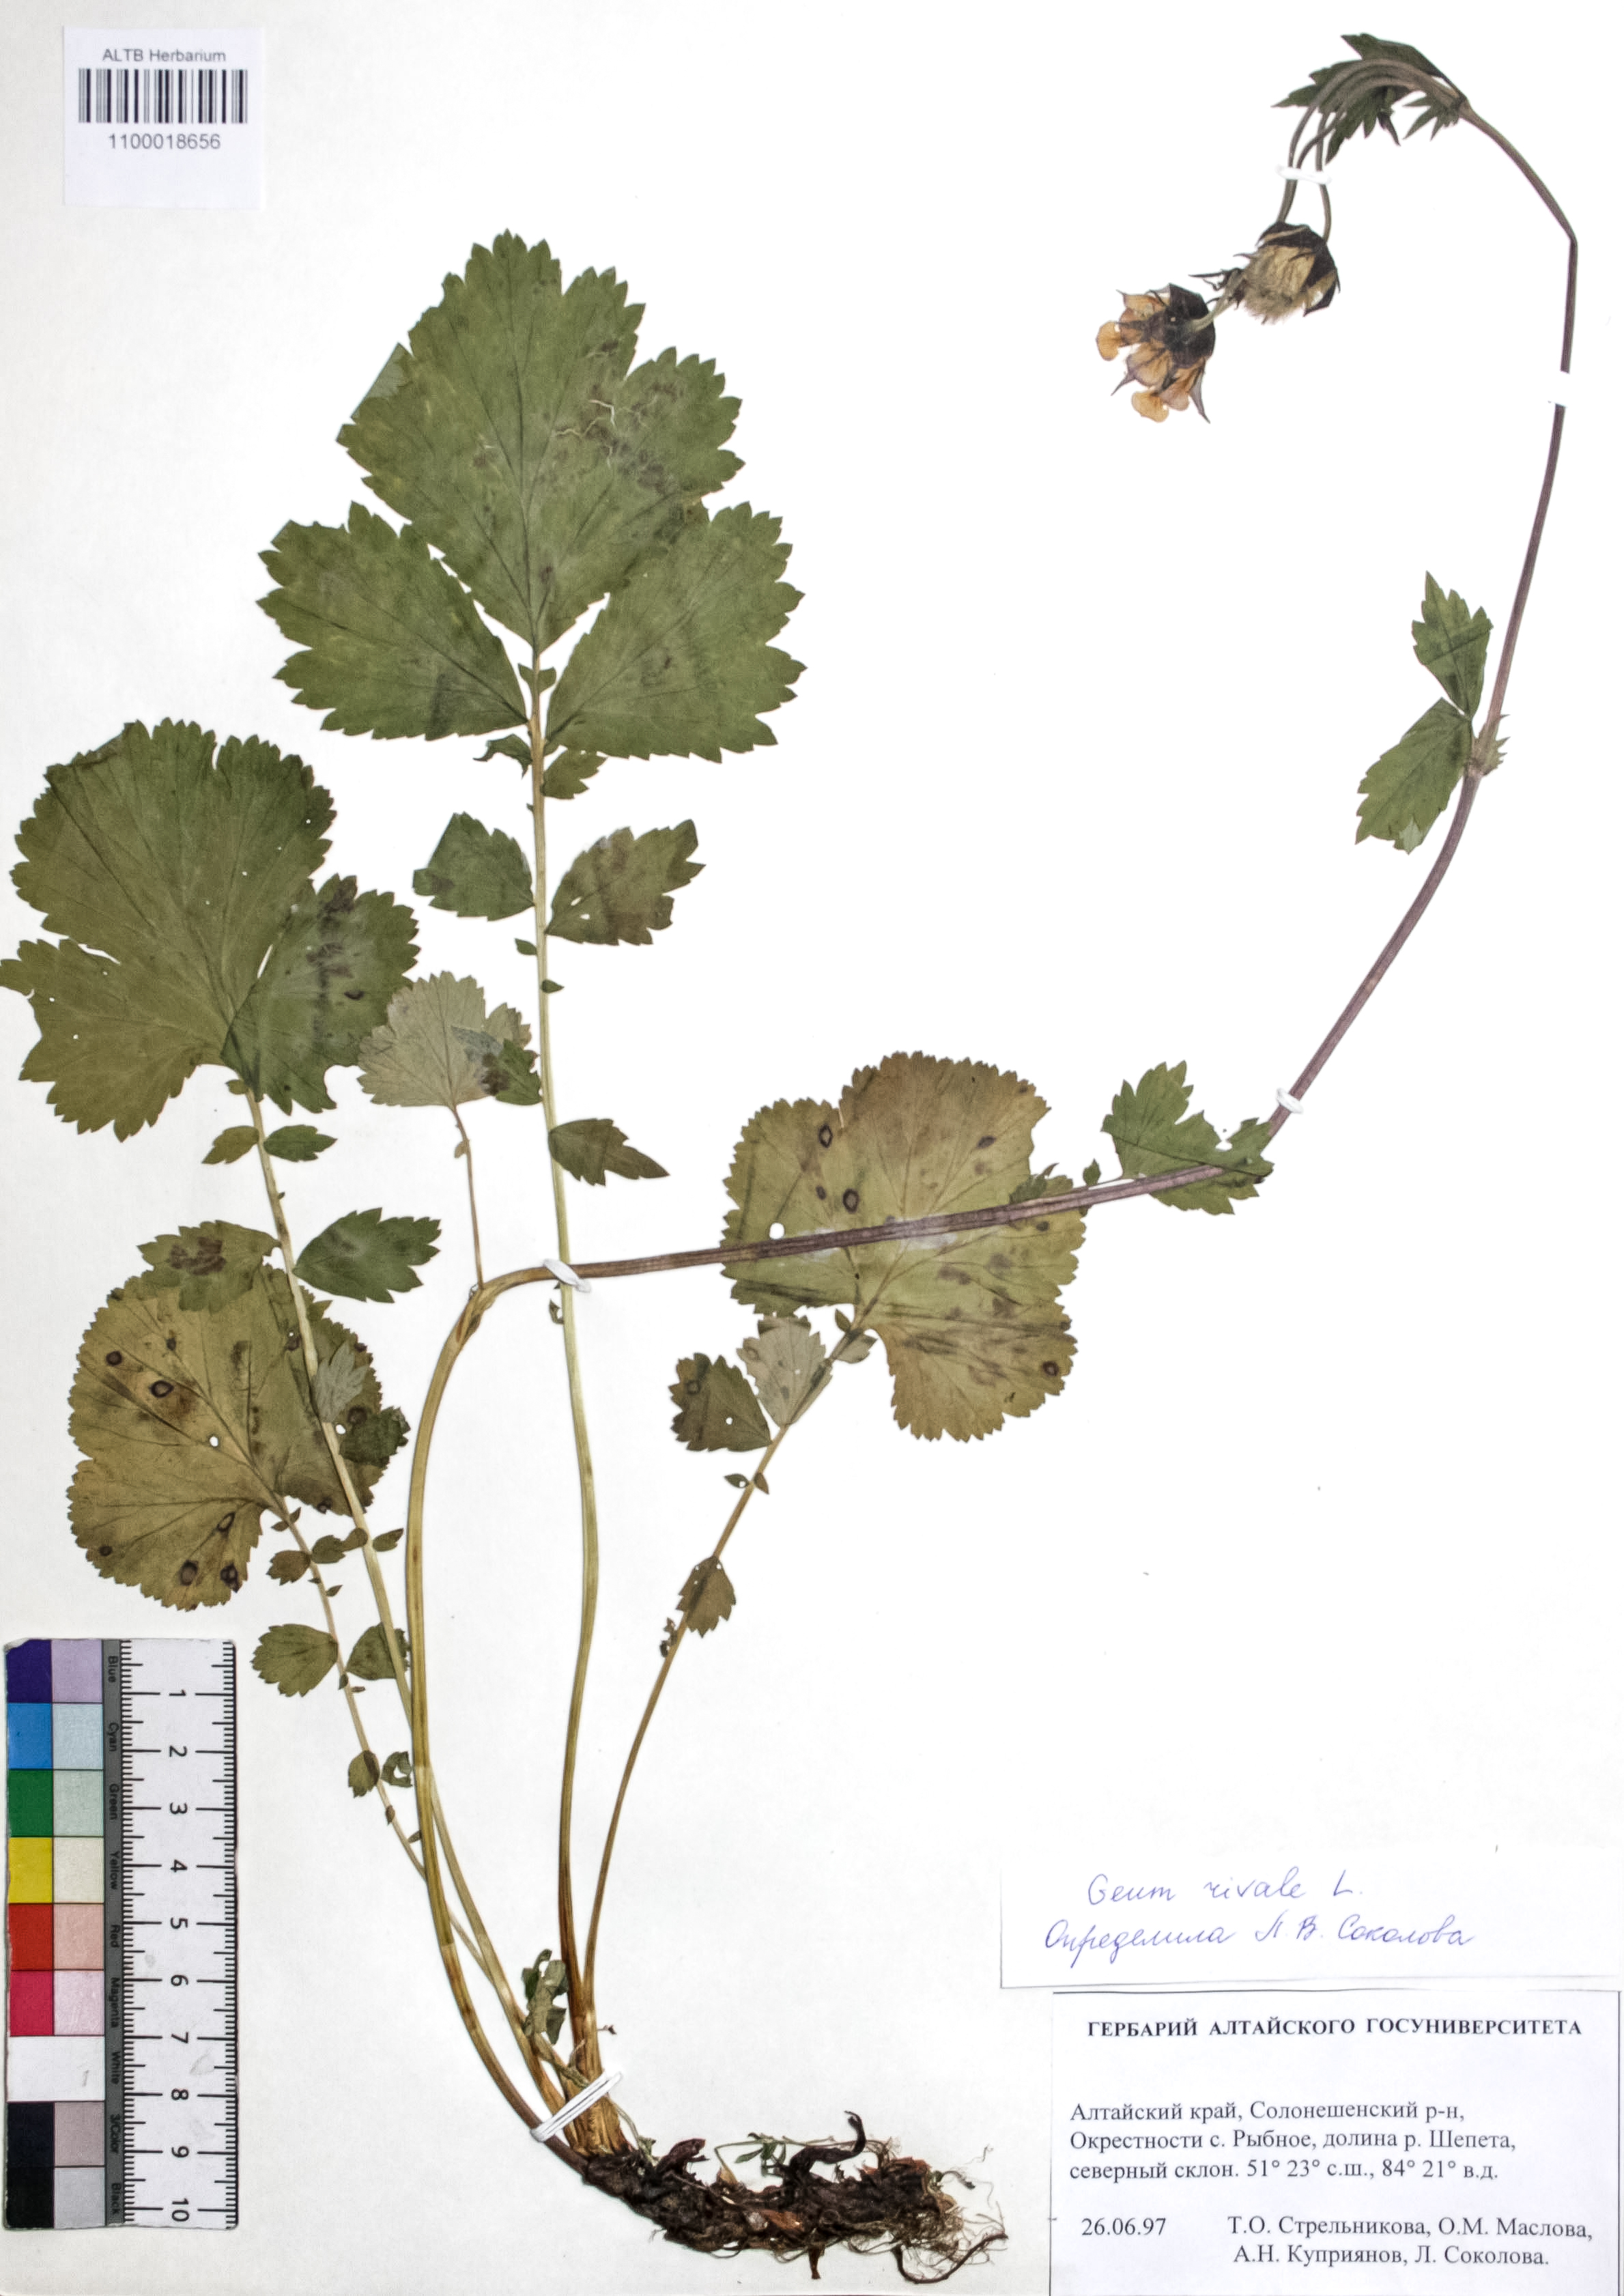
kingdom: Plantae
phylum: Tracheophyta
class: Magnoliopsida
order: Rosales
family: Rosaceae
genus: Geum
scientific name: Geum rivale
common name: Water avens
